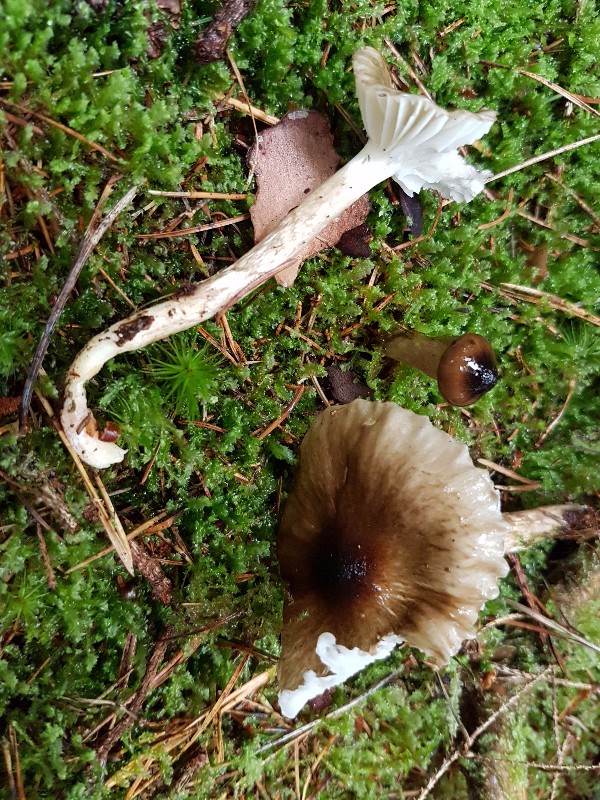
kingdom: Fungi
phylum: Basidiomycota
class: Agaricomycetes
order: Agaricales
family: Hygrophoraceae
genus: Hygrophorus
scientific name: Hygrophorus olivaceoalbus
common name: hvidbrun sneglehat
